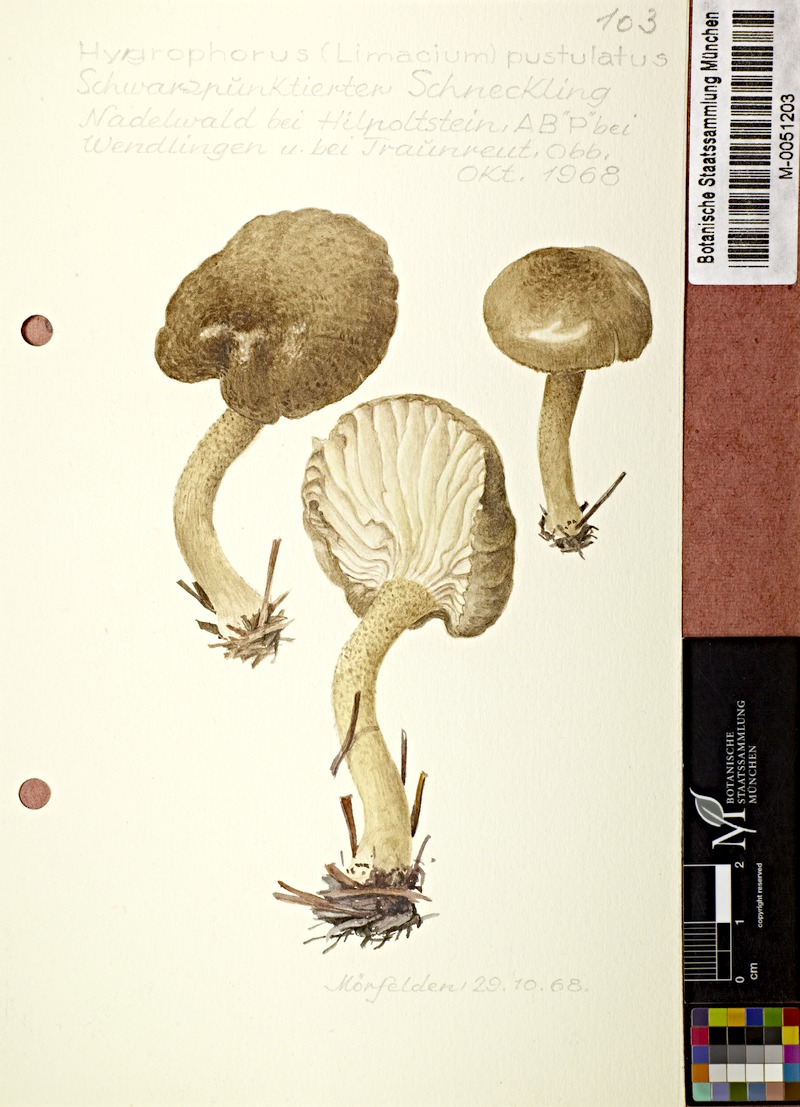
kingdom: Fungi
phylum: Basidiomycota
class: Agaricomycetes
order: Agaricales
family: Hygrophoraceae
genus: Hygrophorus
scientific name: Hygrophorus pustulatus
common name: Blistered woodwax
